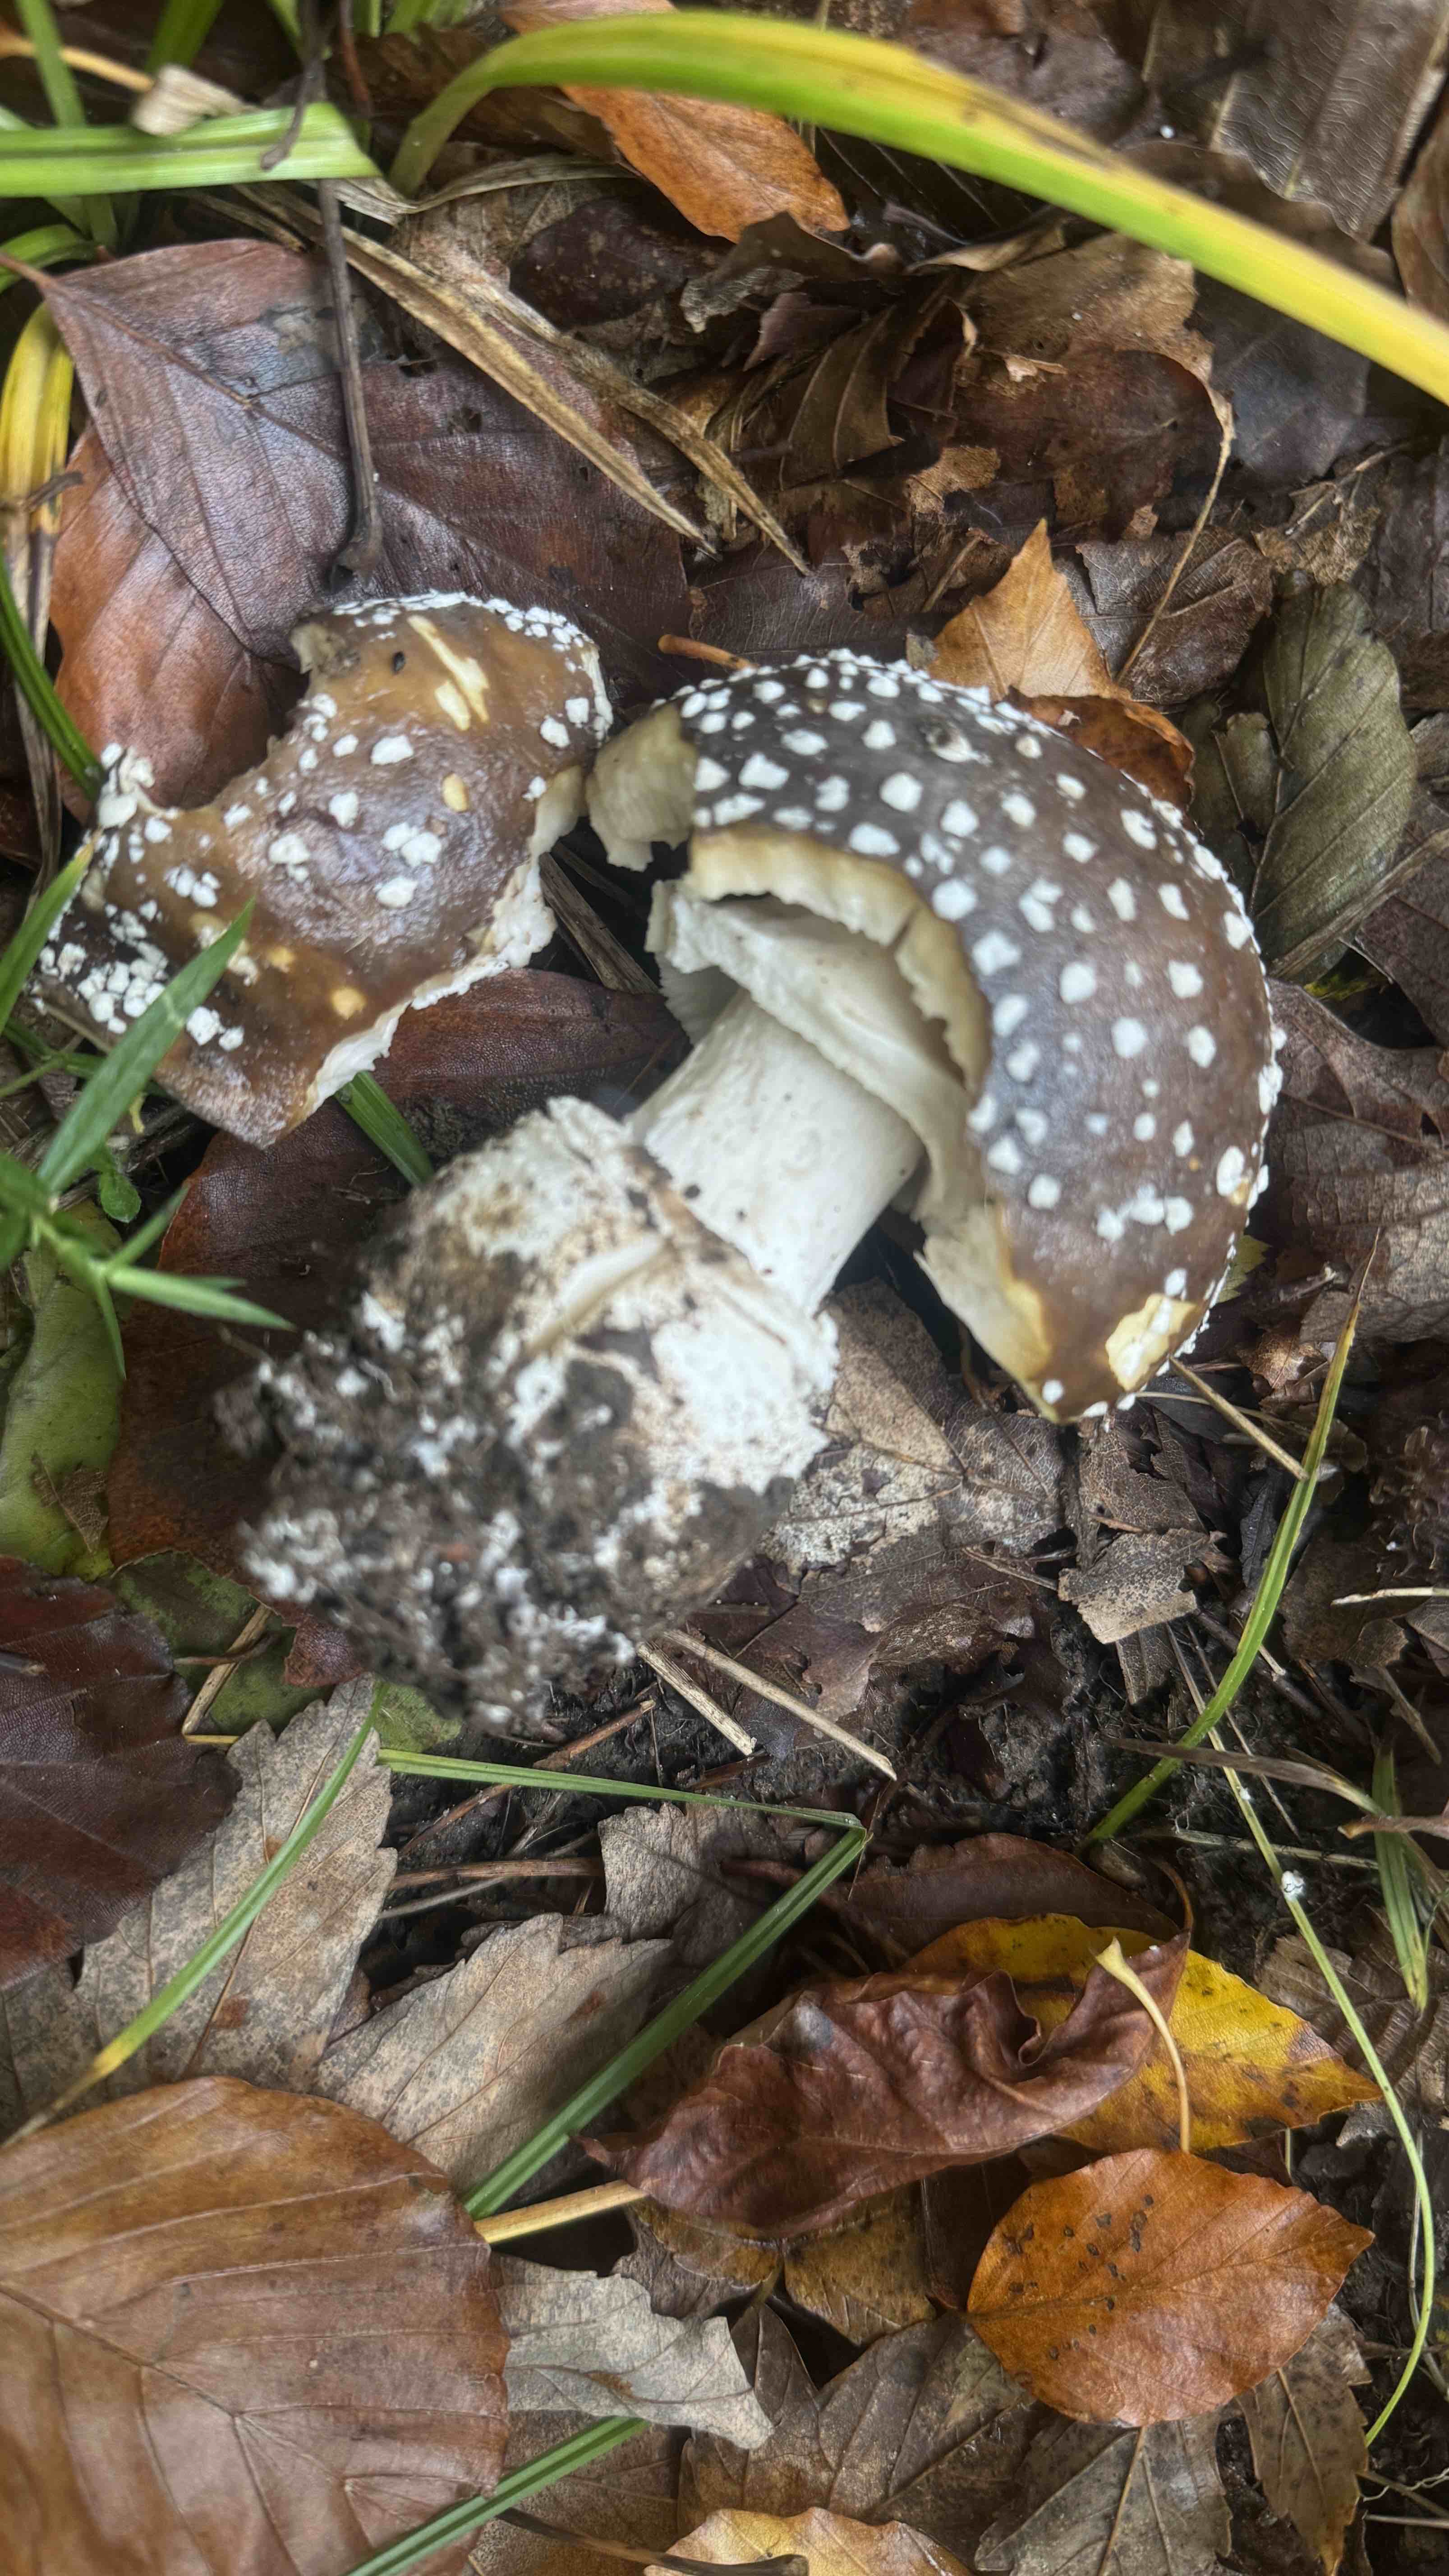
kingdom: Fungi
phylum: Basidiomycota
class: Agaricomycetes
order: Agaricales
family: Amanitaceae
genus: Amanita
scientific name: Amanita pantherina
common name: panter-fluesvamp
